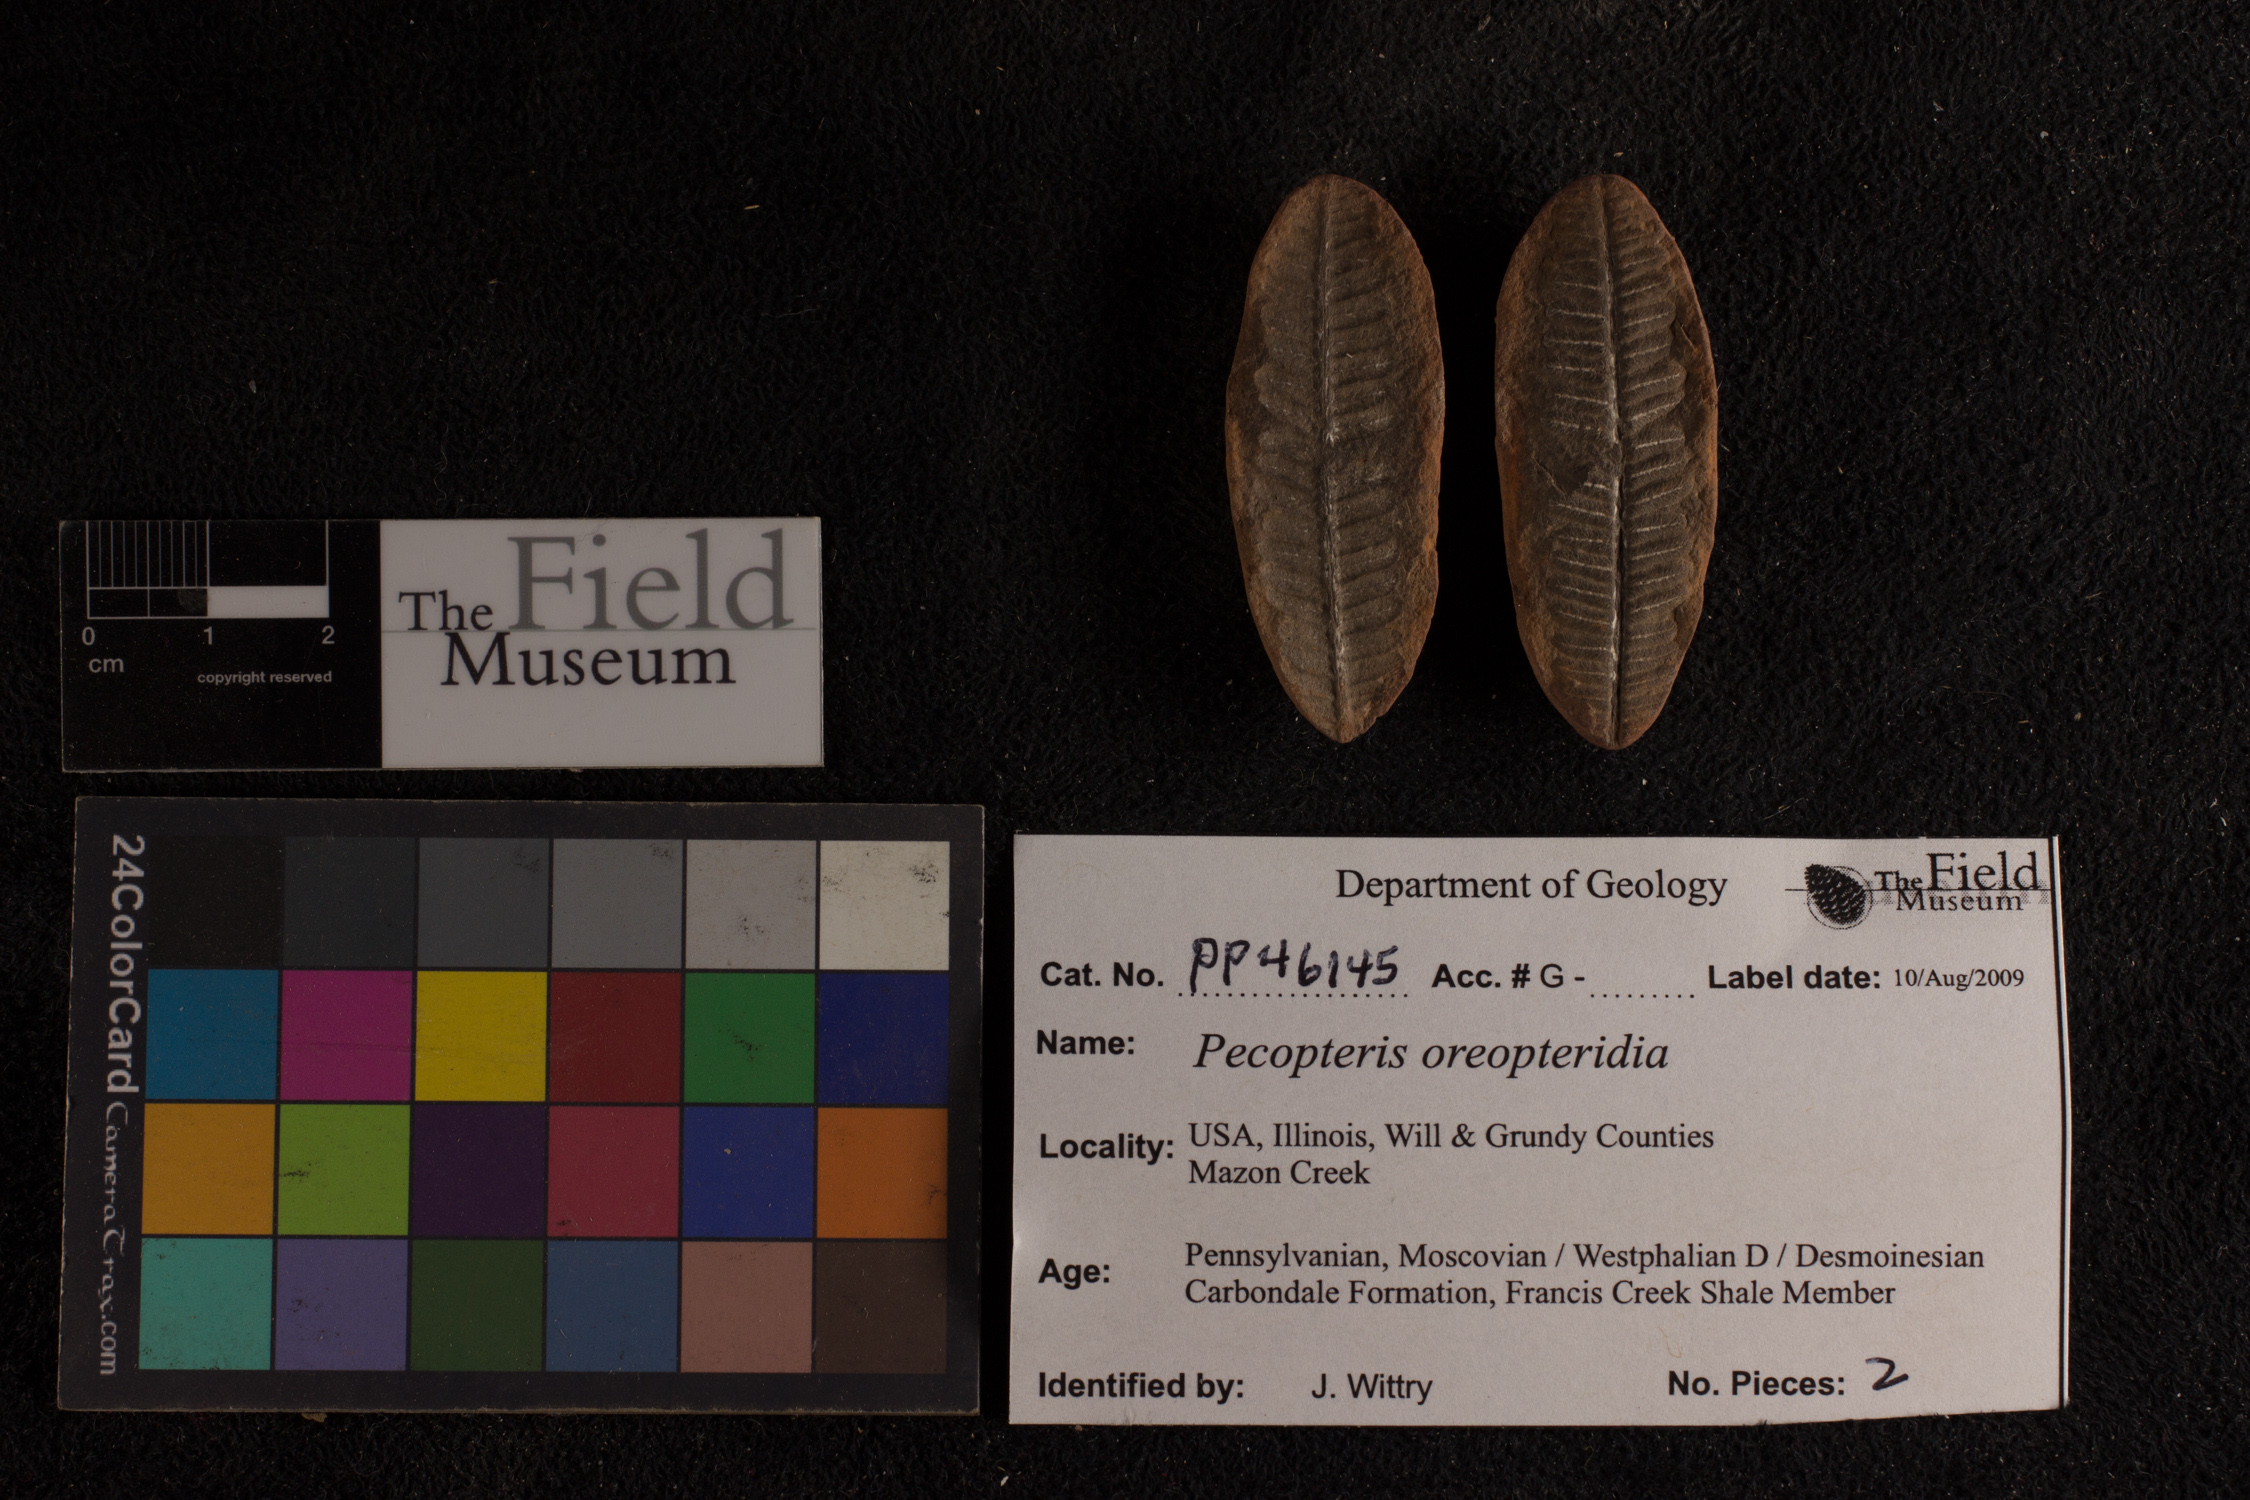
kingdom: Plantae
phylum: Tracheophyta
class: Polypodiopsida
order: Marattiales
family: Asterothecaceae
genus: Pecopteris
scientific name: Pecopteris
